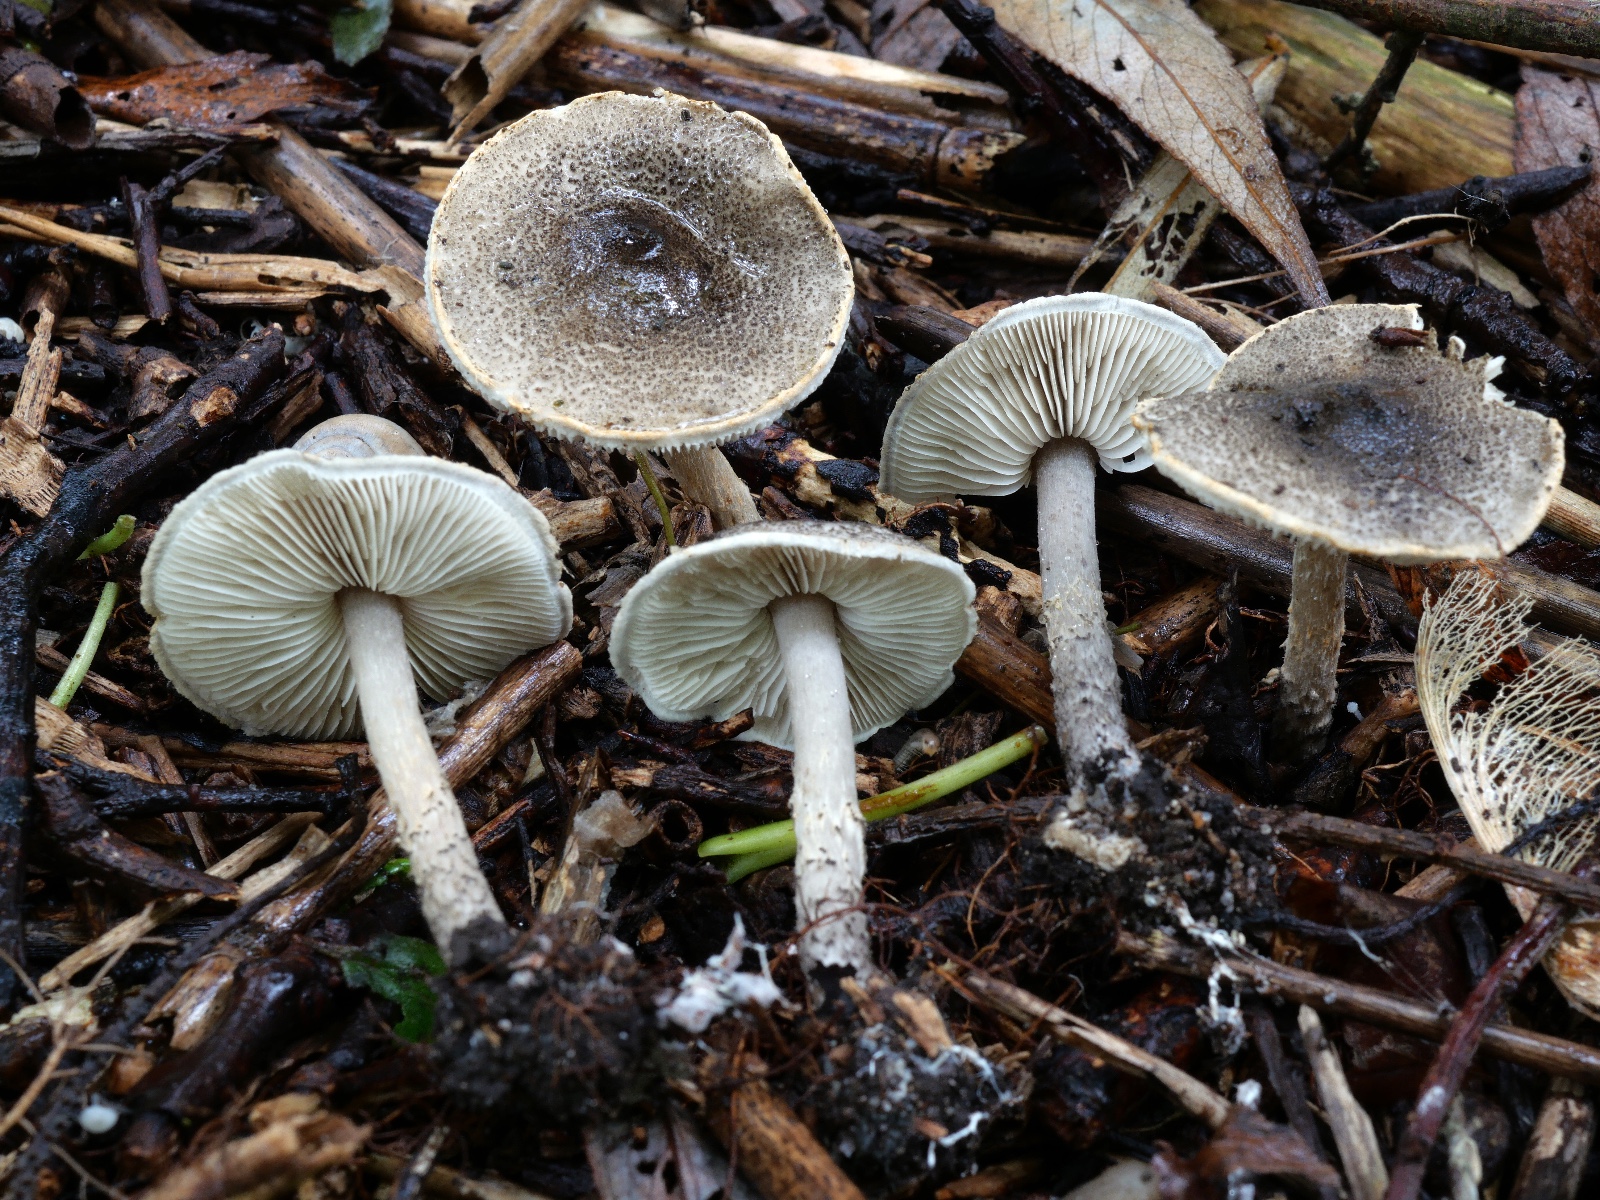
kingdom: Fungi
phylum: Basidiomycota
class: Agaricomycetes
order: Agaricales
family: Agaricaceae
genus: Lepiota
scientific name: Lepiota griseovirens
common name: grågrøn parasolhat
